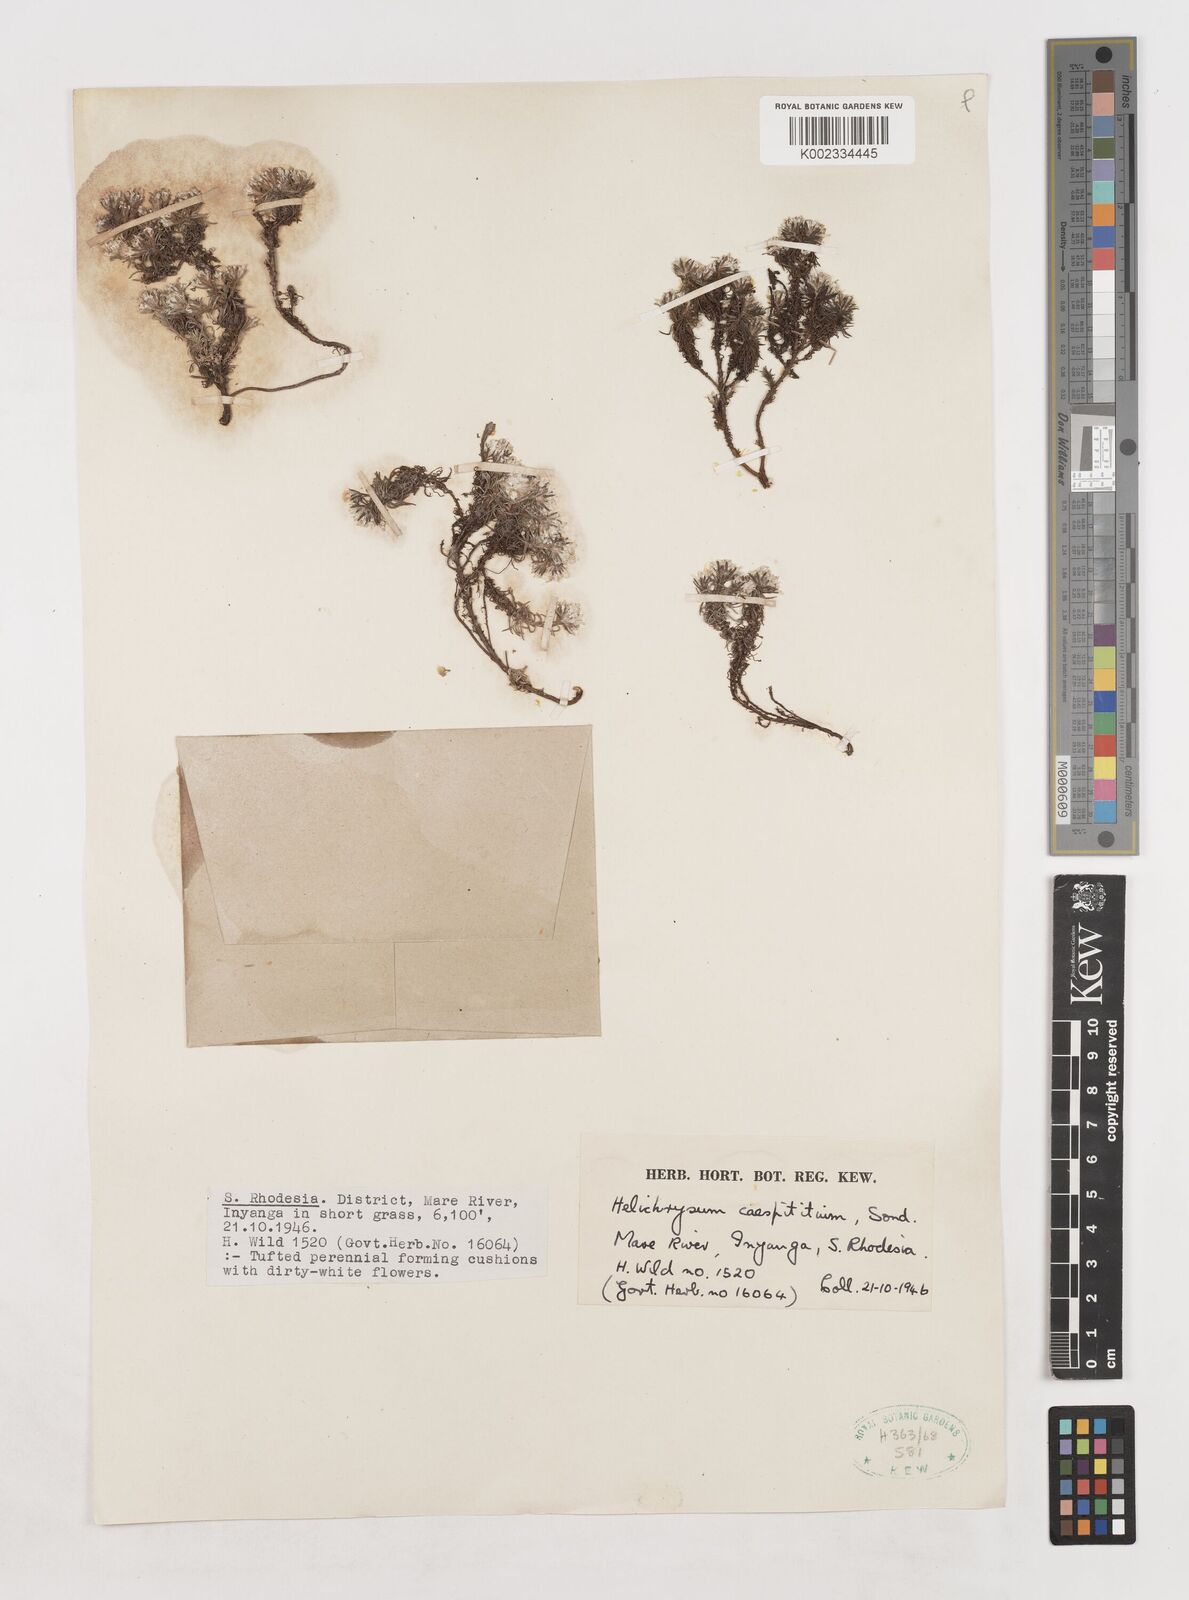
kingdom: Plantae
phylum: Tracheophyta
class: Magnoliopsida
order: Asterales
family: Asteraceae
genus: Helichrysum
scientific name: Helichrysum caespititium
